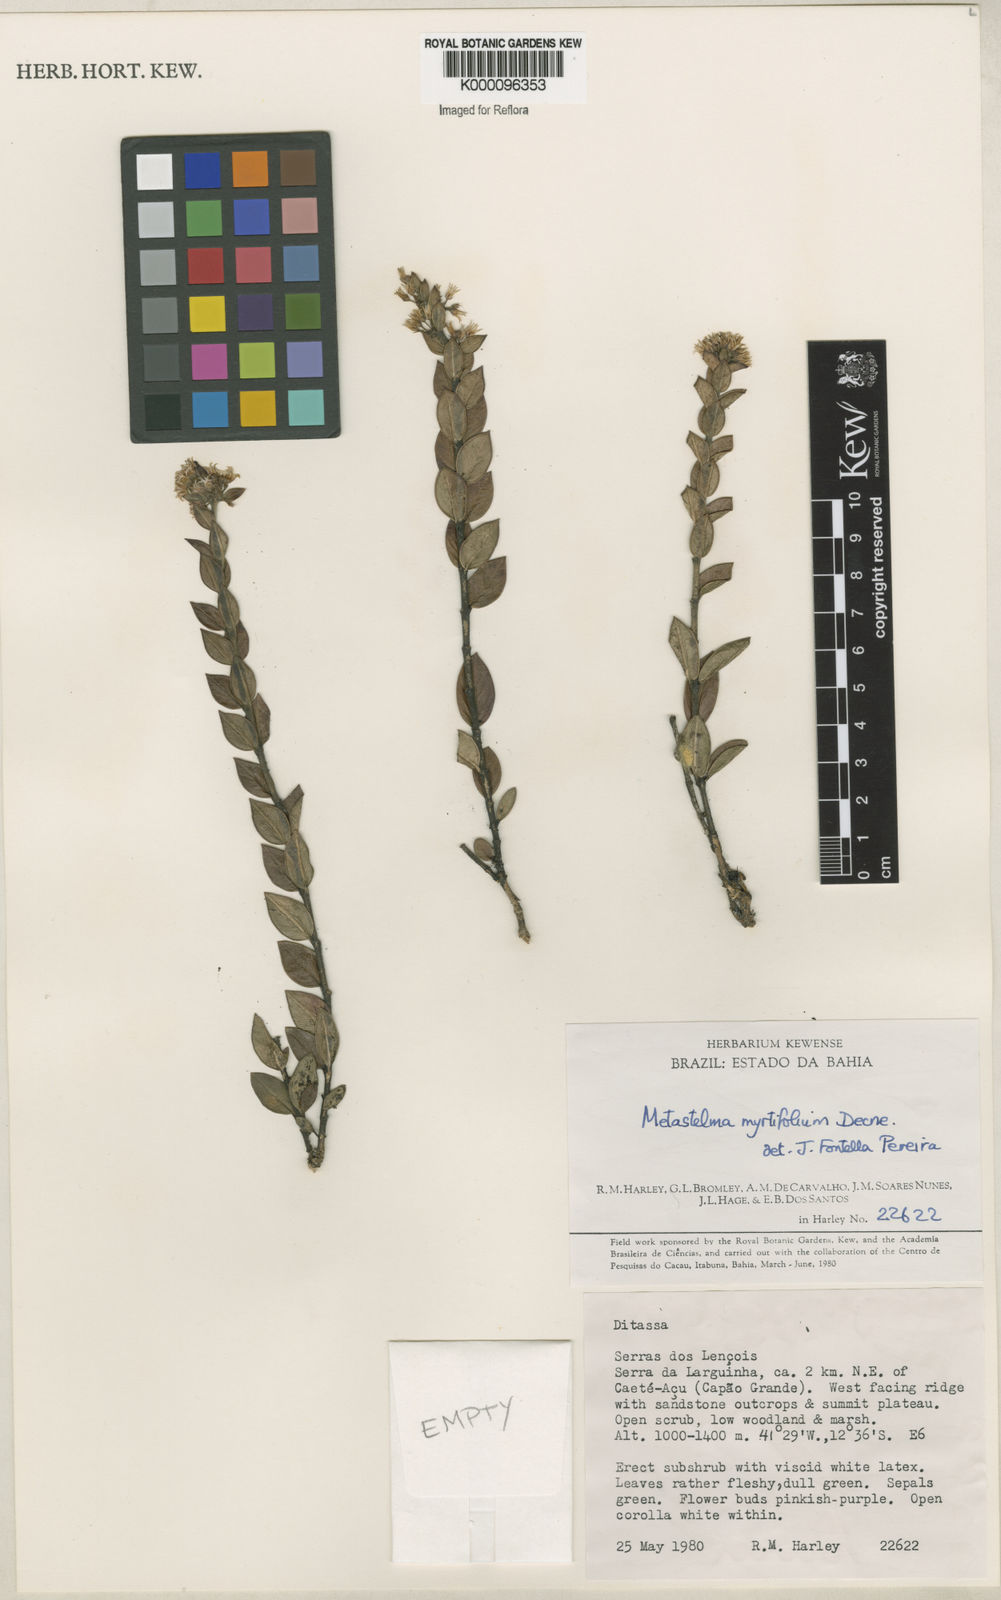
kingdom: Plantae
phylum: Tracheophyta
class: Magnoliopsida
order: Gentianales
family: Apocynaceae
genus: Metastelma
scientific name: Metastelma myrtifolium
